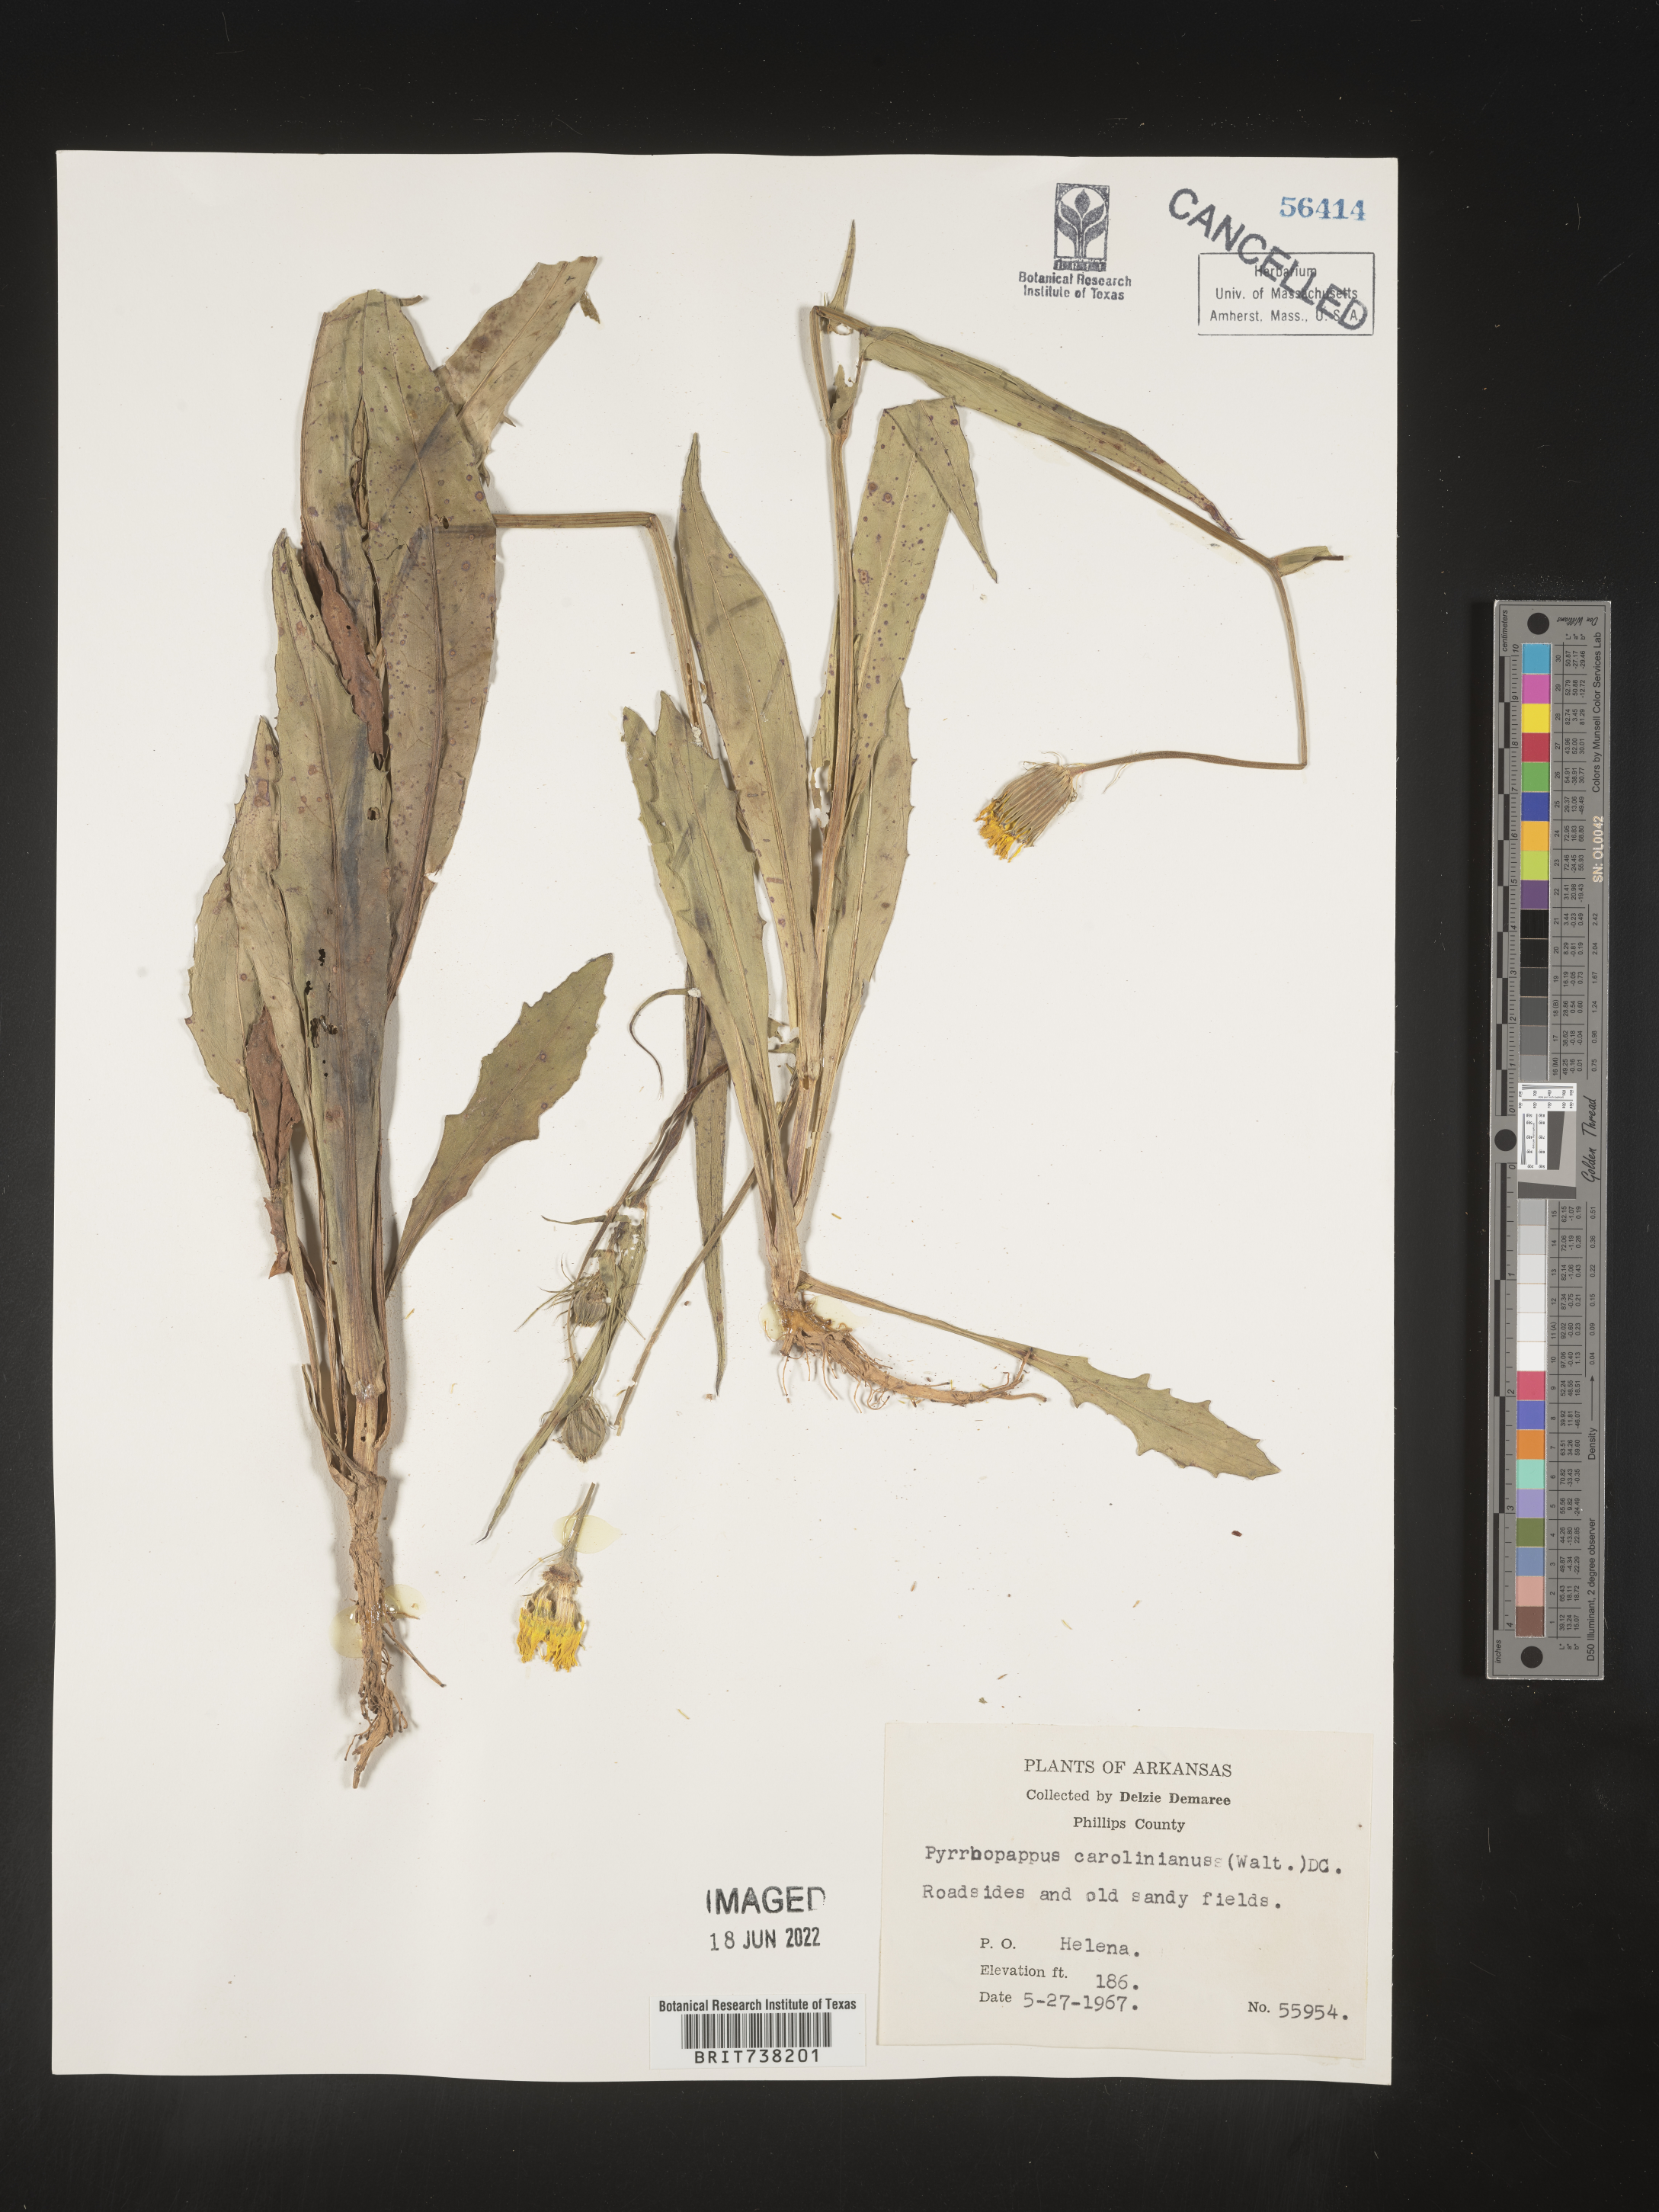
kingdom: Plantae
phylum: Tracheophyta
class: Magnoliopsida
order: Asterales
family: Asteraceae
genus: Pyrrhopappus
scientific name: Pyrrhopappus carolinianus
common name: Carolina desert-chicory
